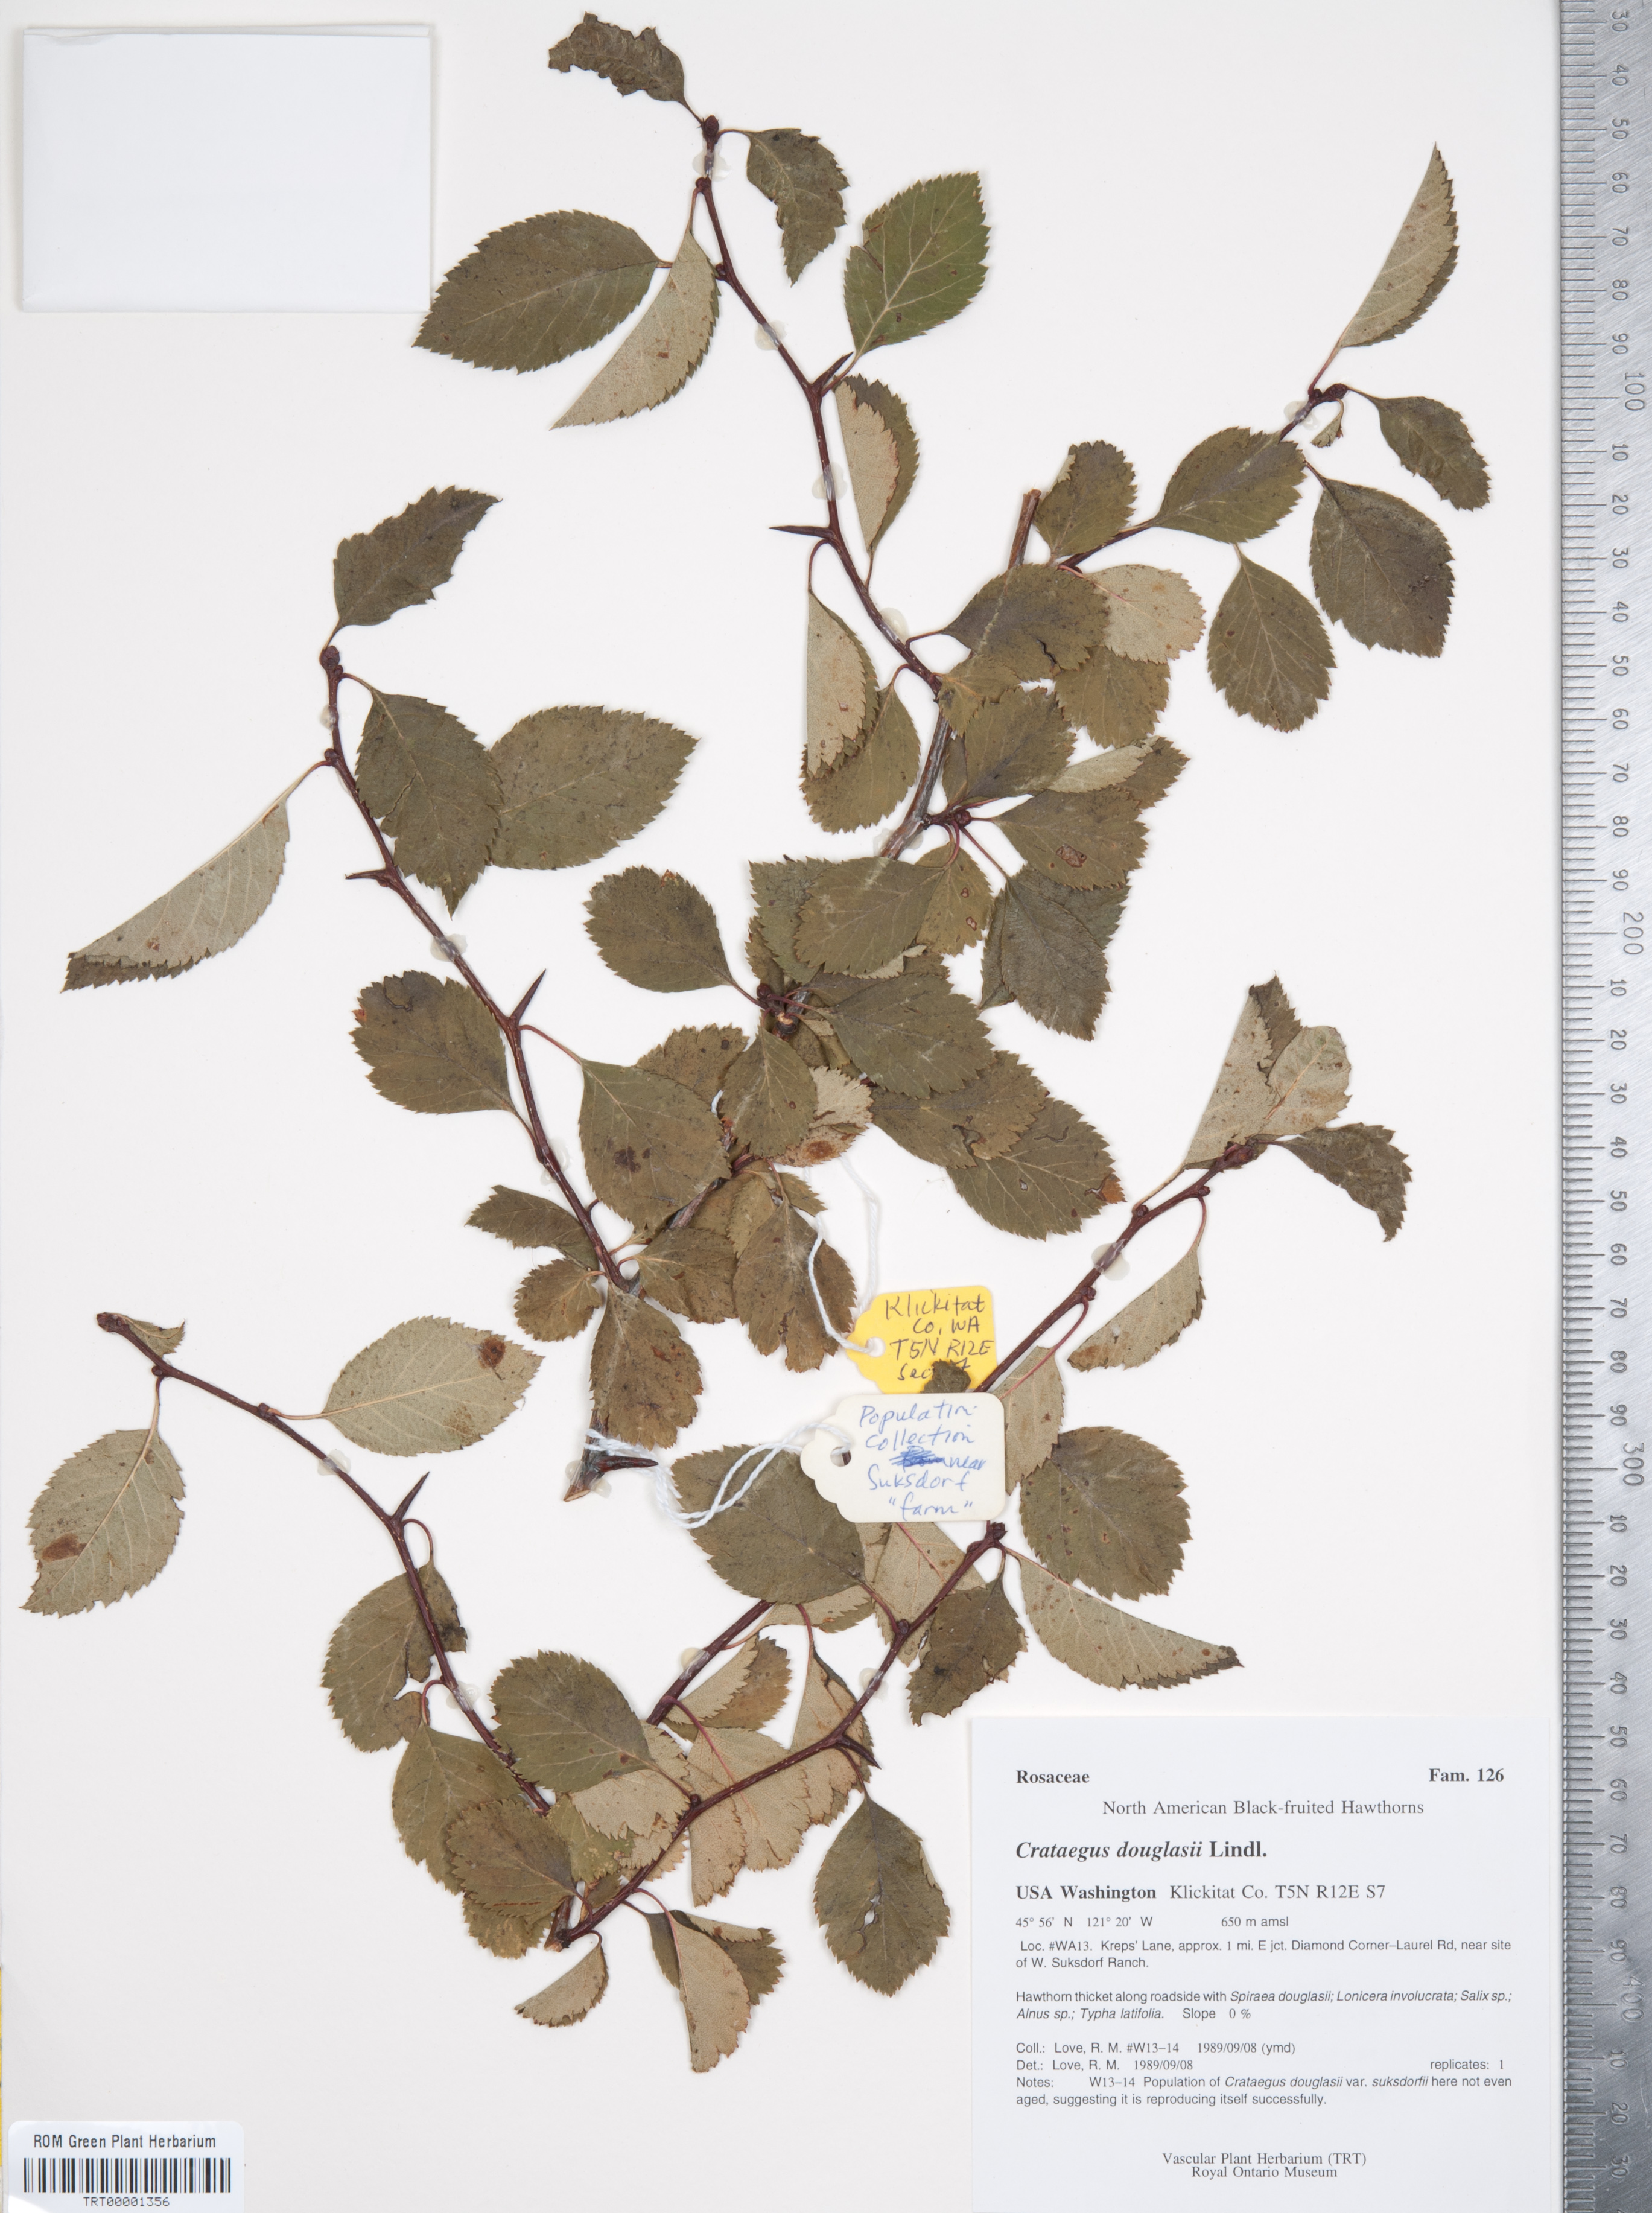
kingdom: Plantae
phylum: Tracheophyta
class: Magnoliopsida
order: Rosales
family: Rosaceae
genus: Crataegus
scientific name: Crataegus douglasii
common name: Black hawthorn
